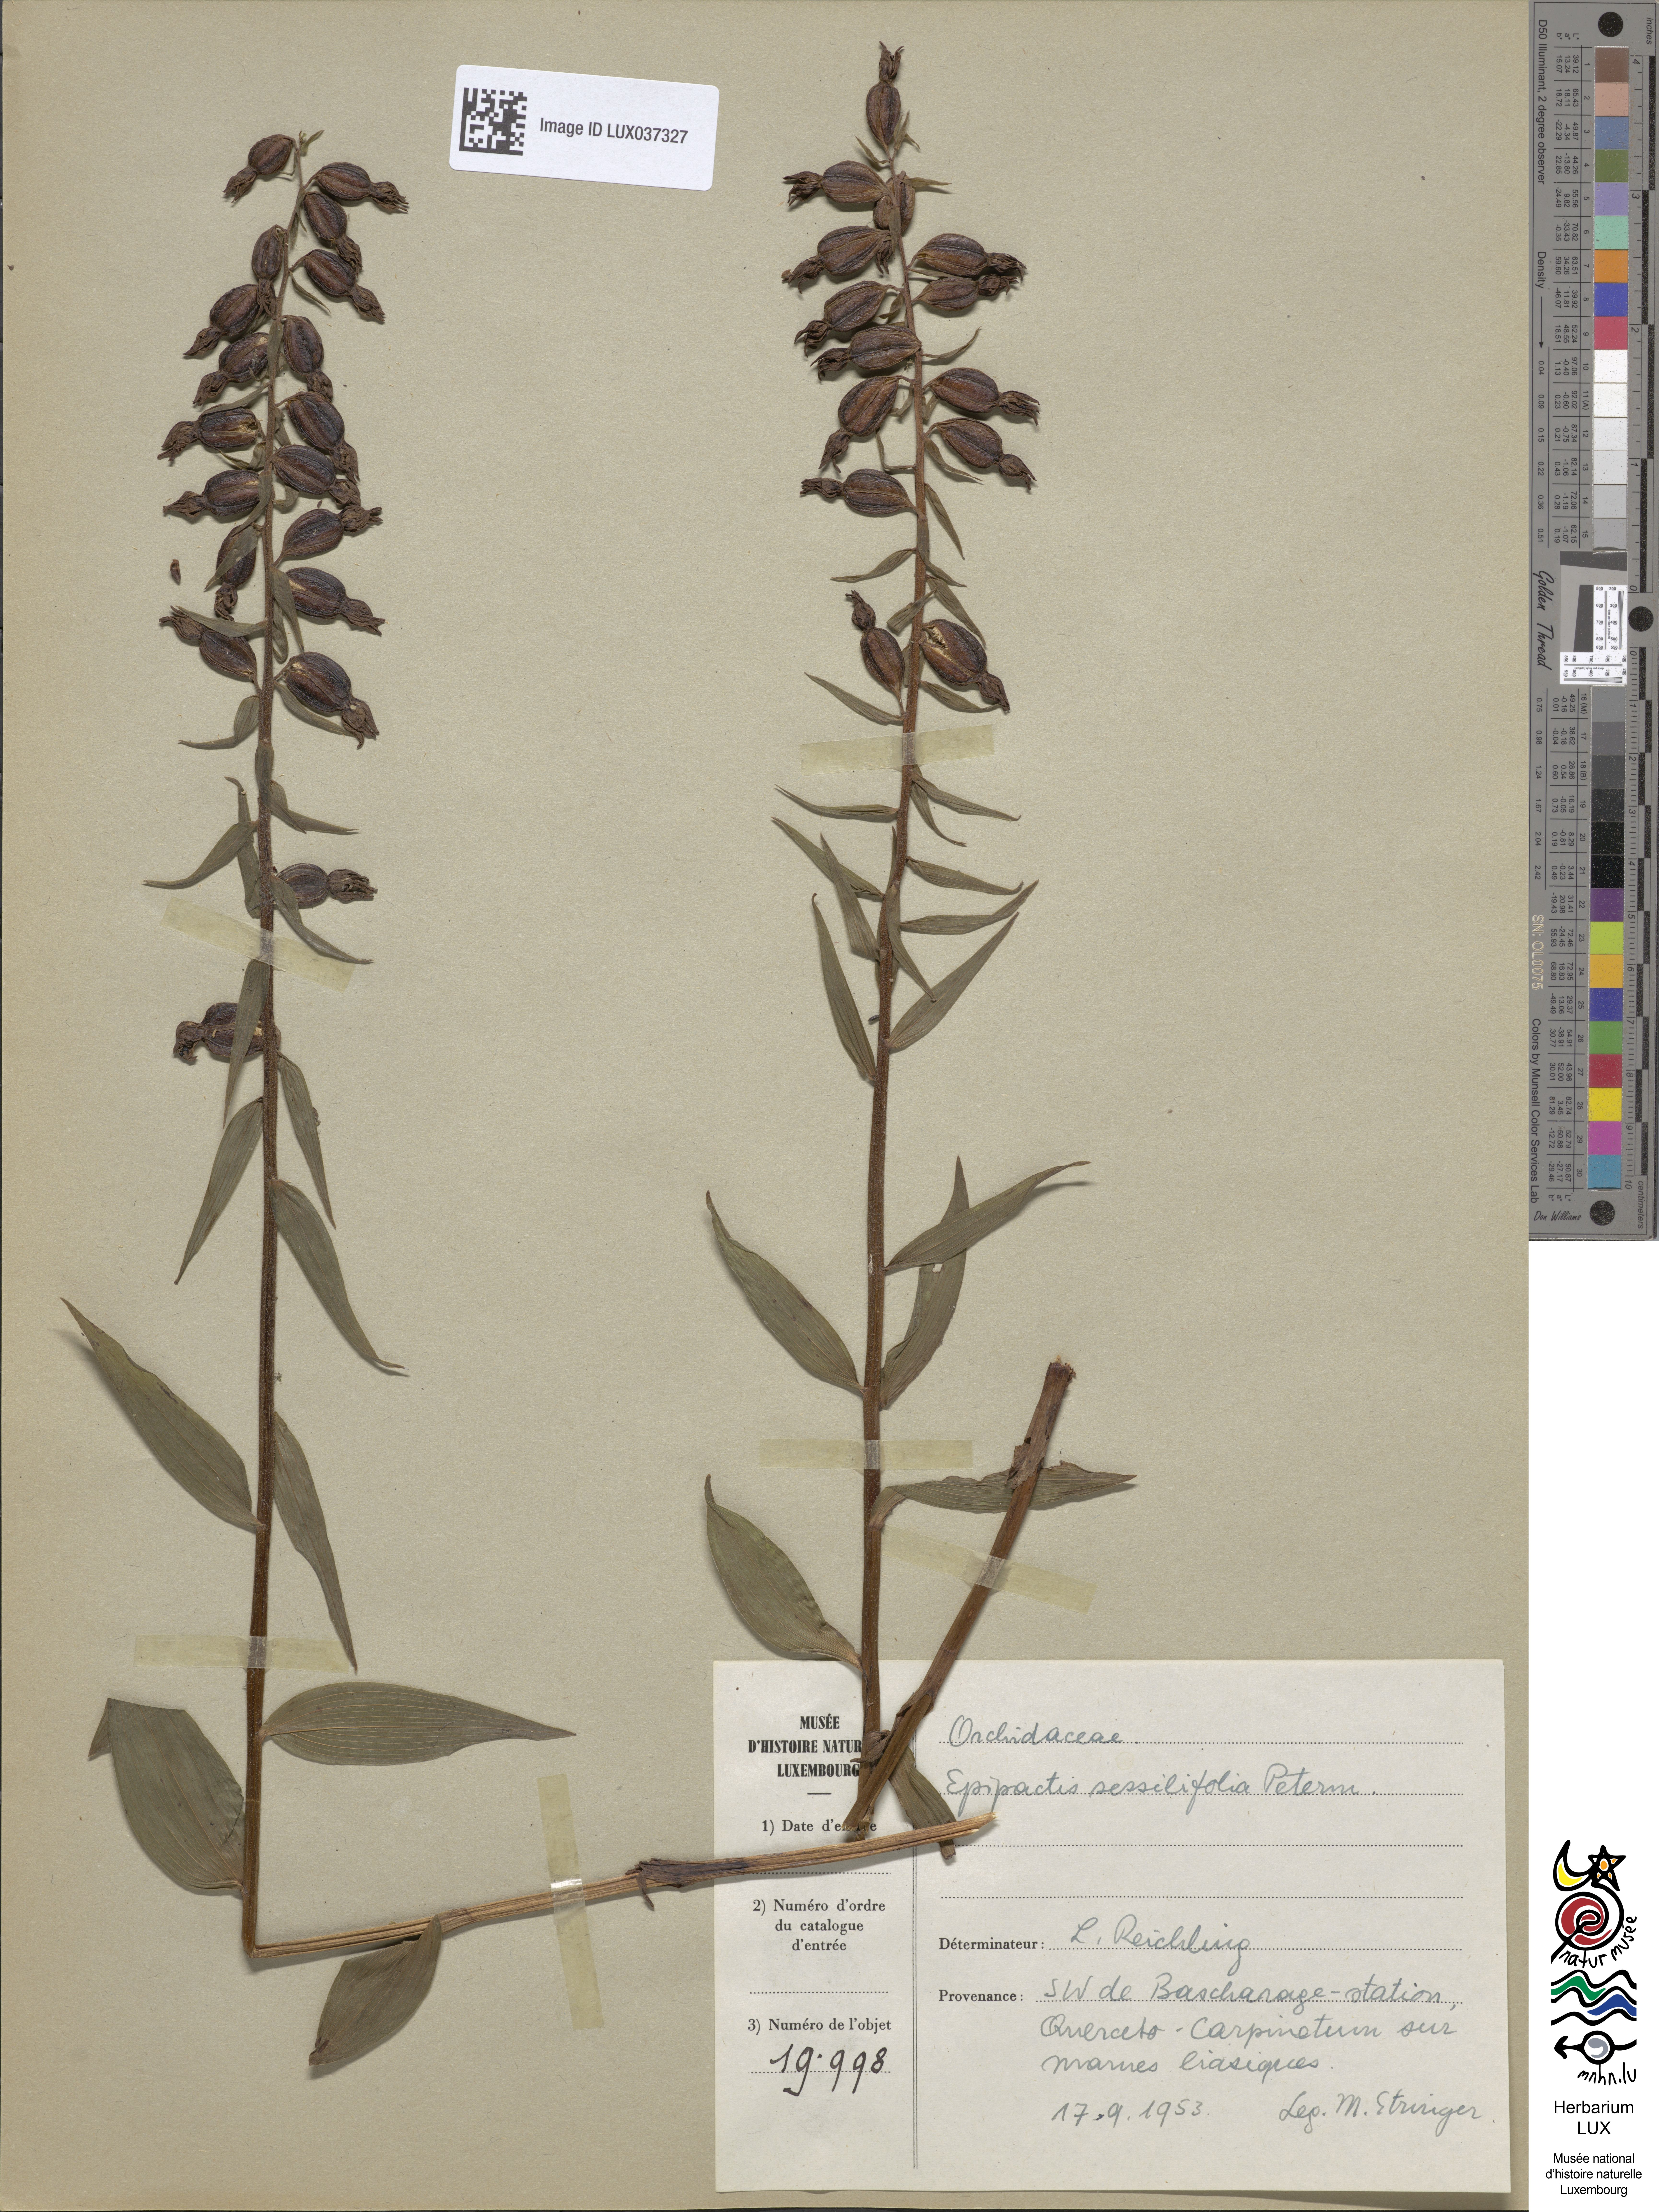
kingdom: Plantae
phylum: Tracheophyta
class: Liliopsida
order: Asparagales
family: Orchidaceae
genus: Epipactis
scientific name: Epipactis purpurata
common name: Violet helleborine
